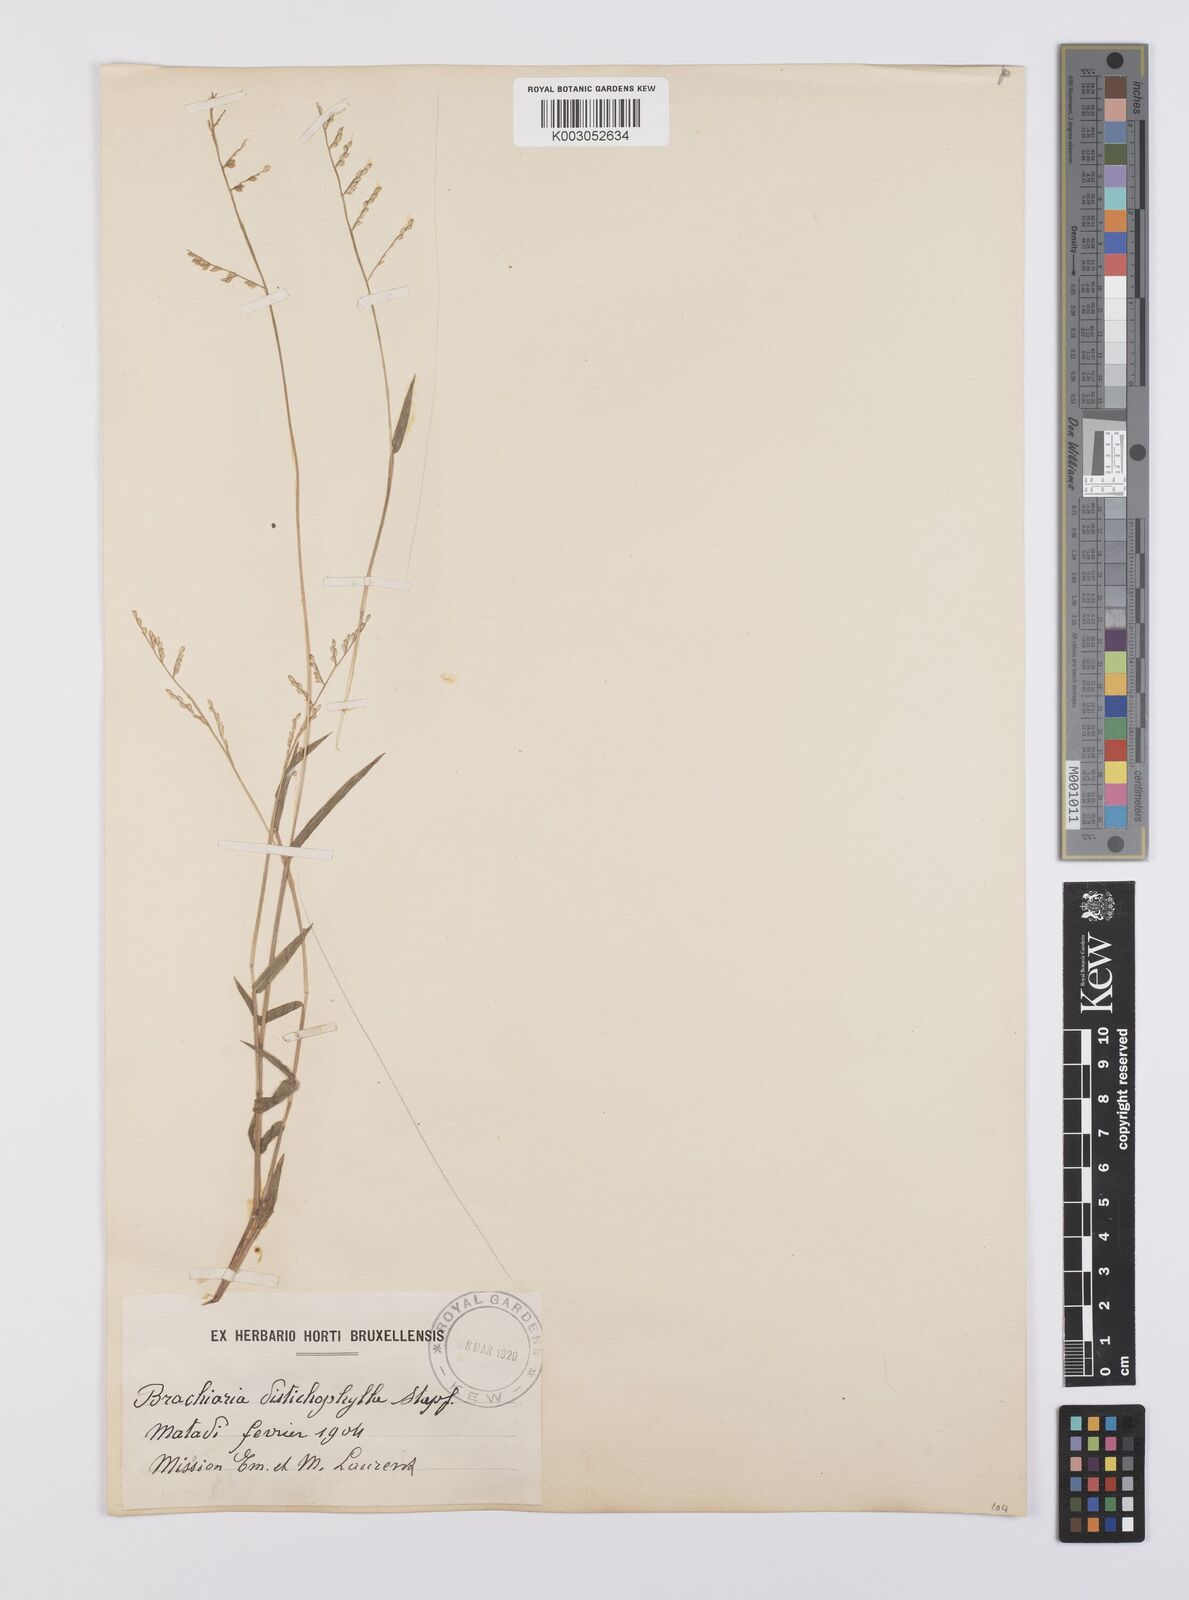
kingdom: Plantae
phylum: Tracheophyta
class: Liliopsida
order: Poales
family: Poaceae
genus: Urochloa
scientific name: Urochloa villosa
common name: Hairy signalgrass
